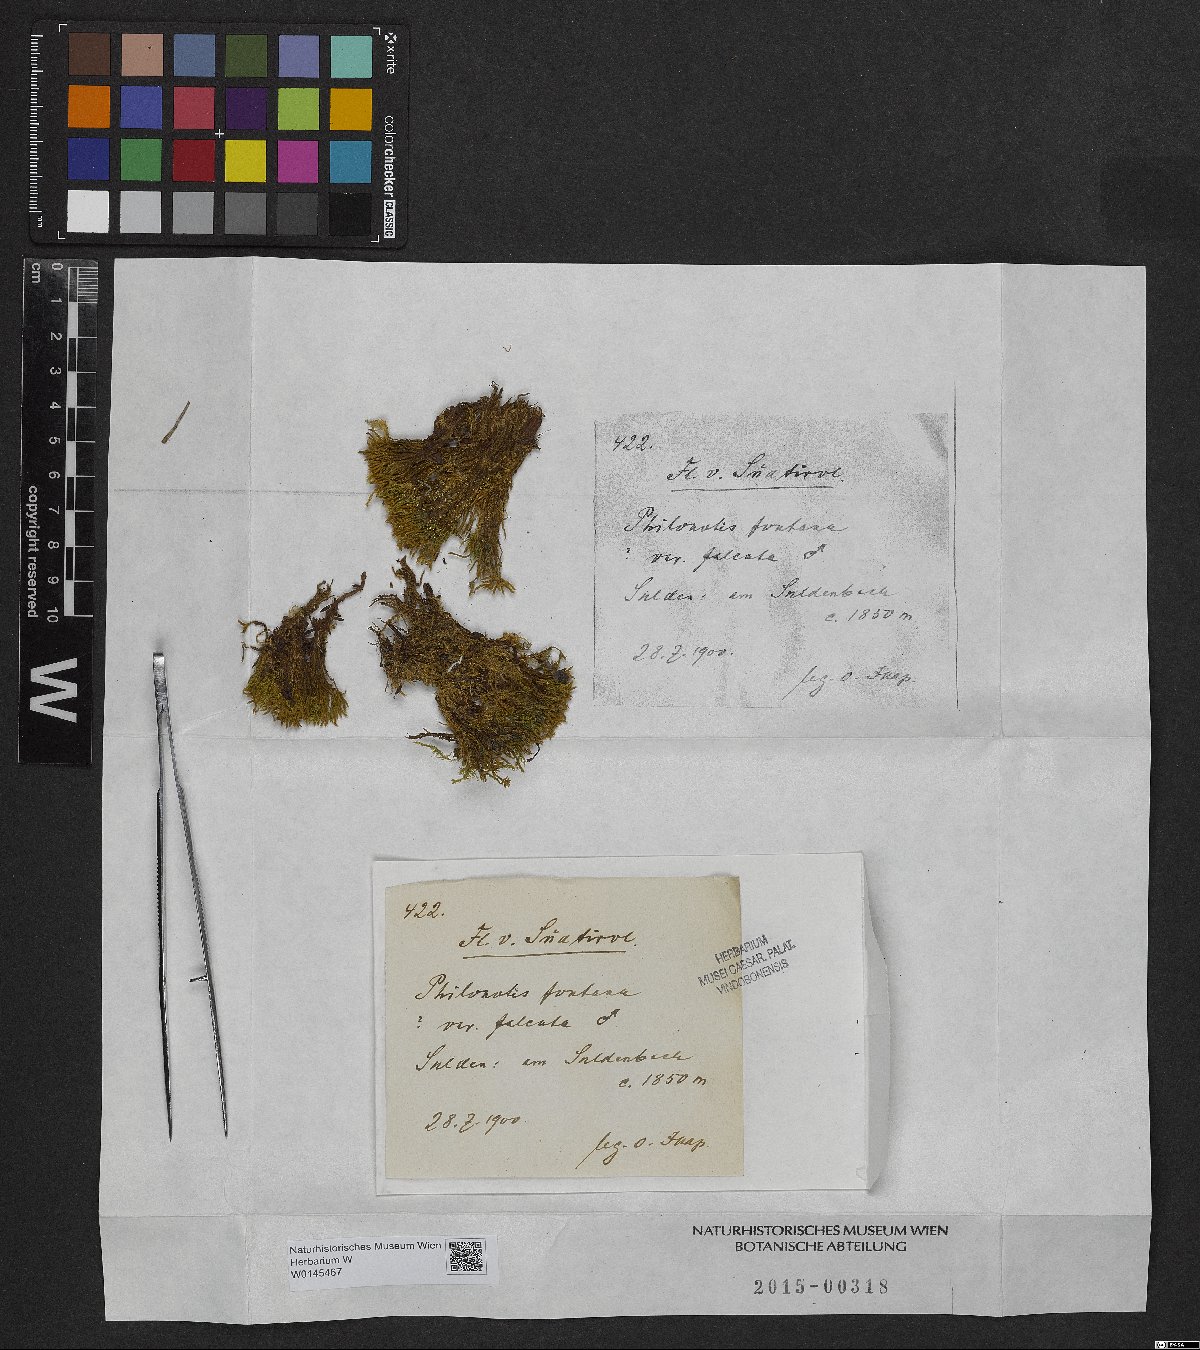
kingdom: Plantae
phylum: Bryophyta
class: Bryopsida
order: Bartramiales
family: Bartramiaceae
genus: Philonotis
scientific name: Philonotis falcata
